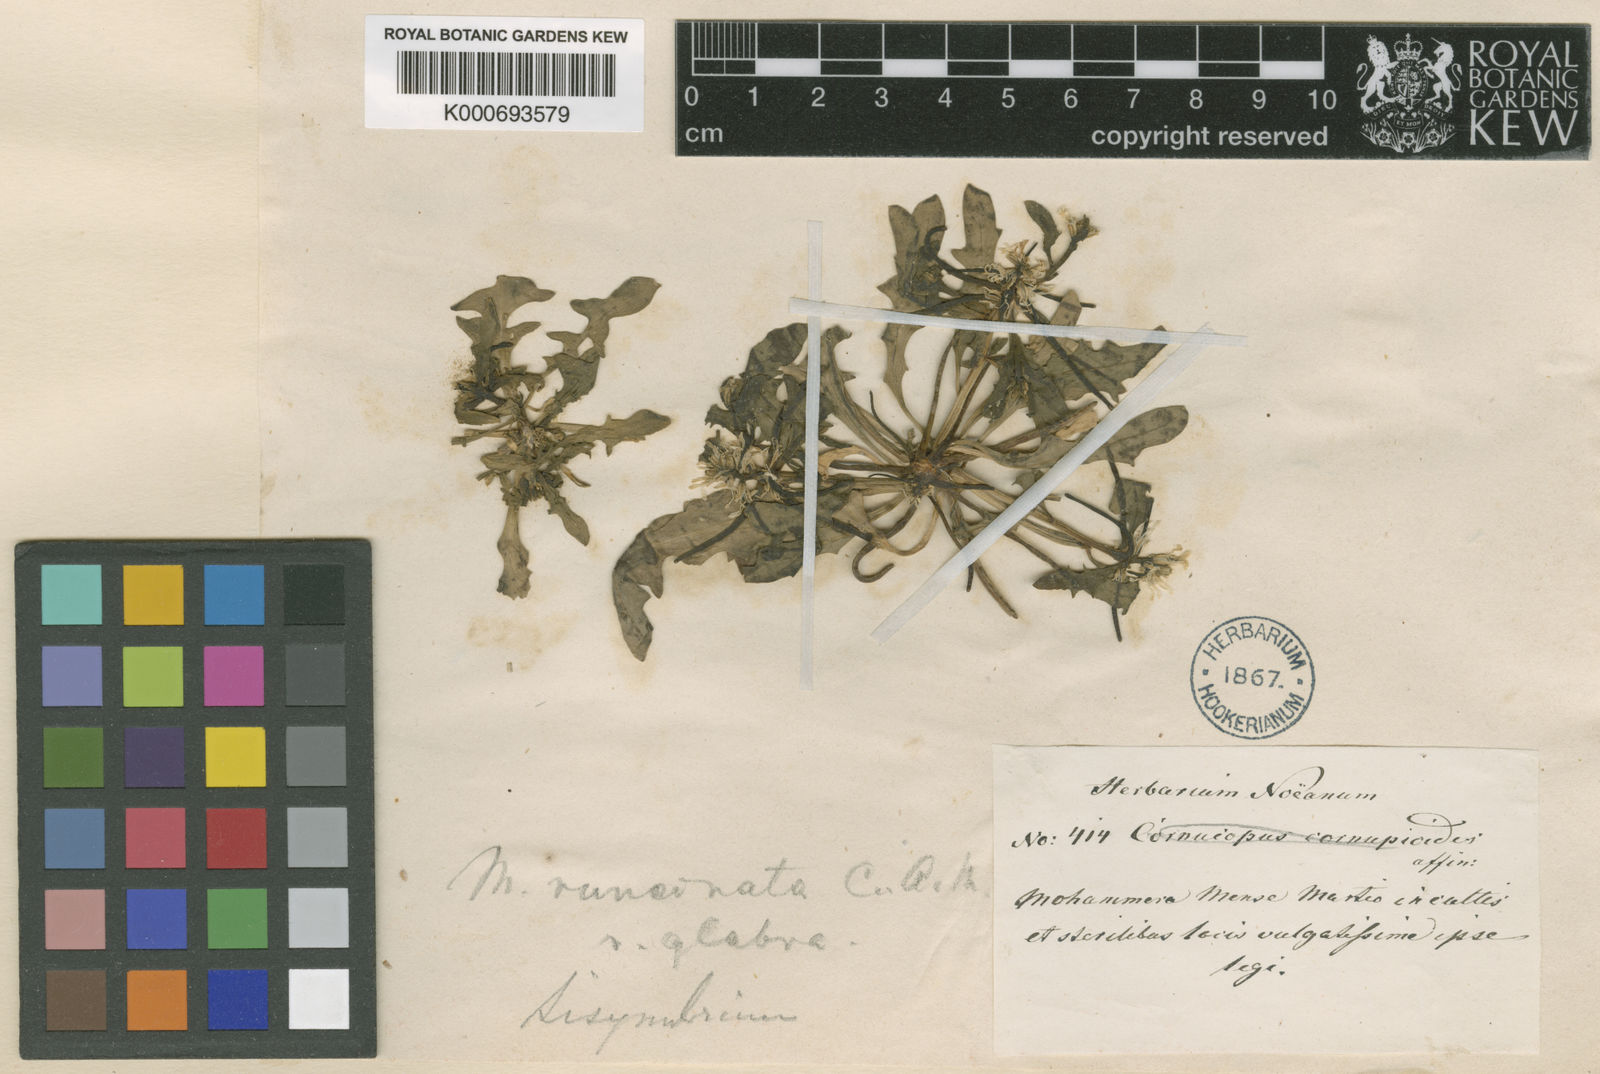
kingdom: Plantae
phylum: Tracheophyta
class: Magnoliopsida
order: Brassicales
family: Brassicaceae
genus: Strigosella
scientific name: Strigosella intermedia
